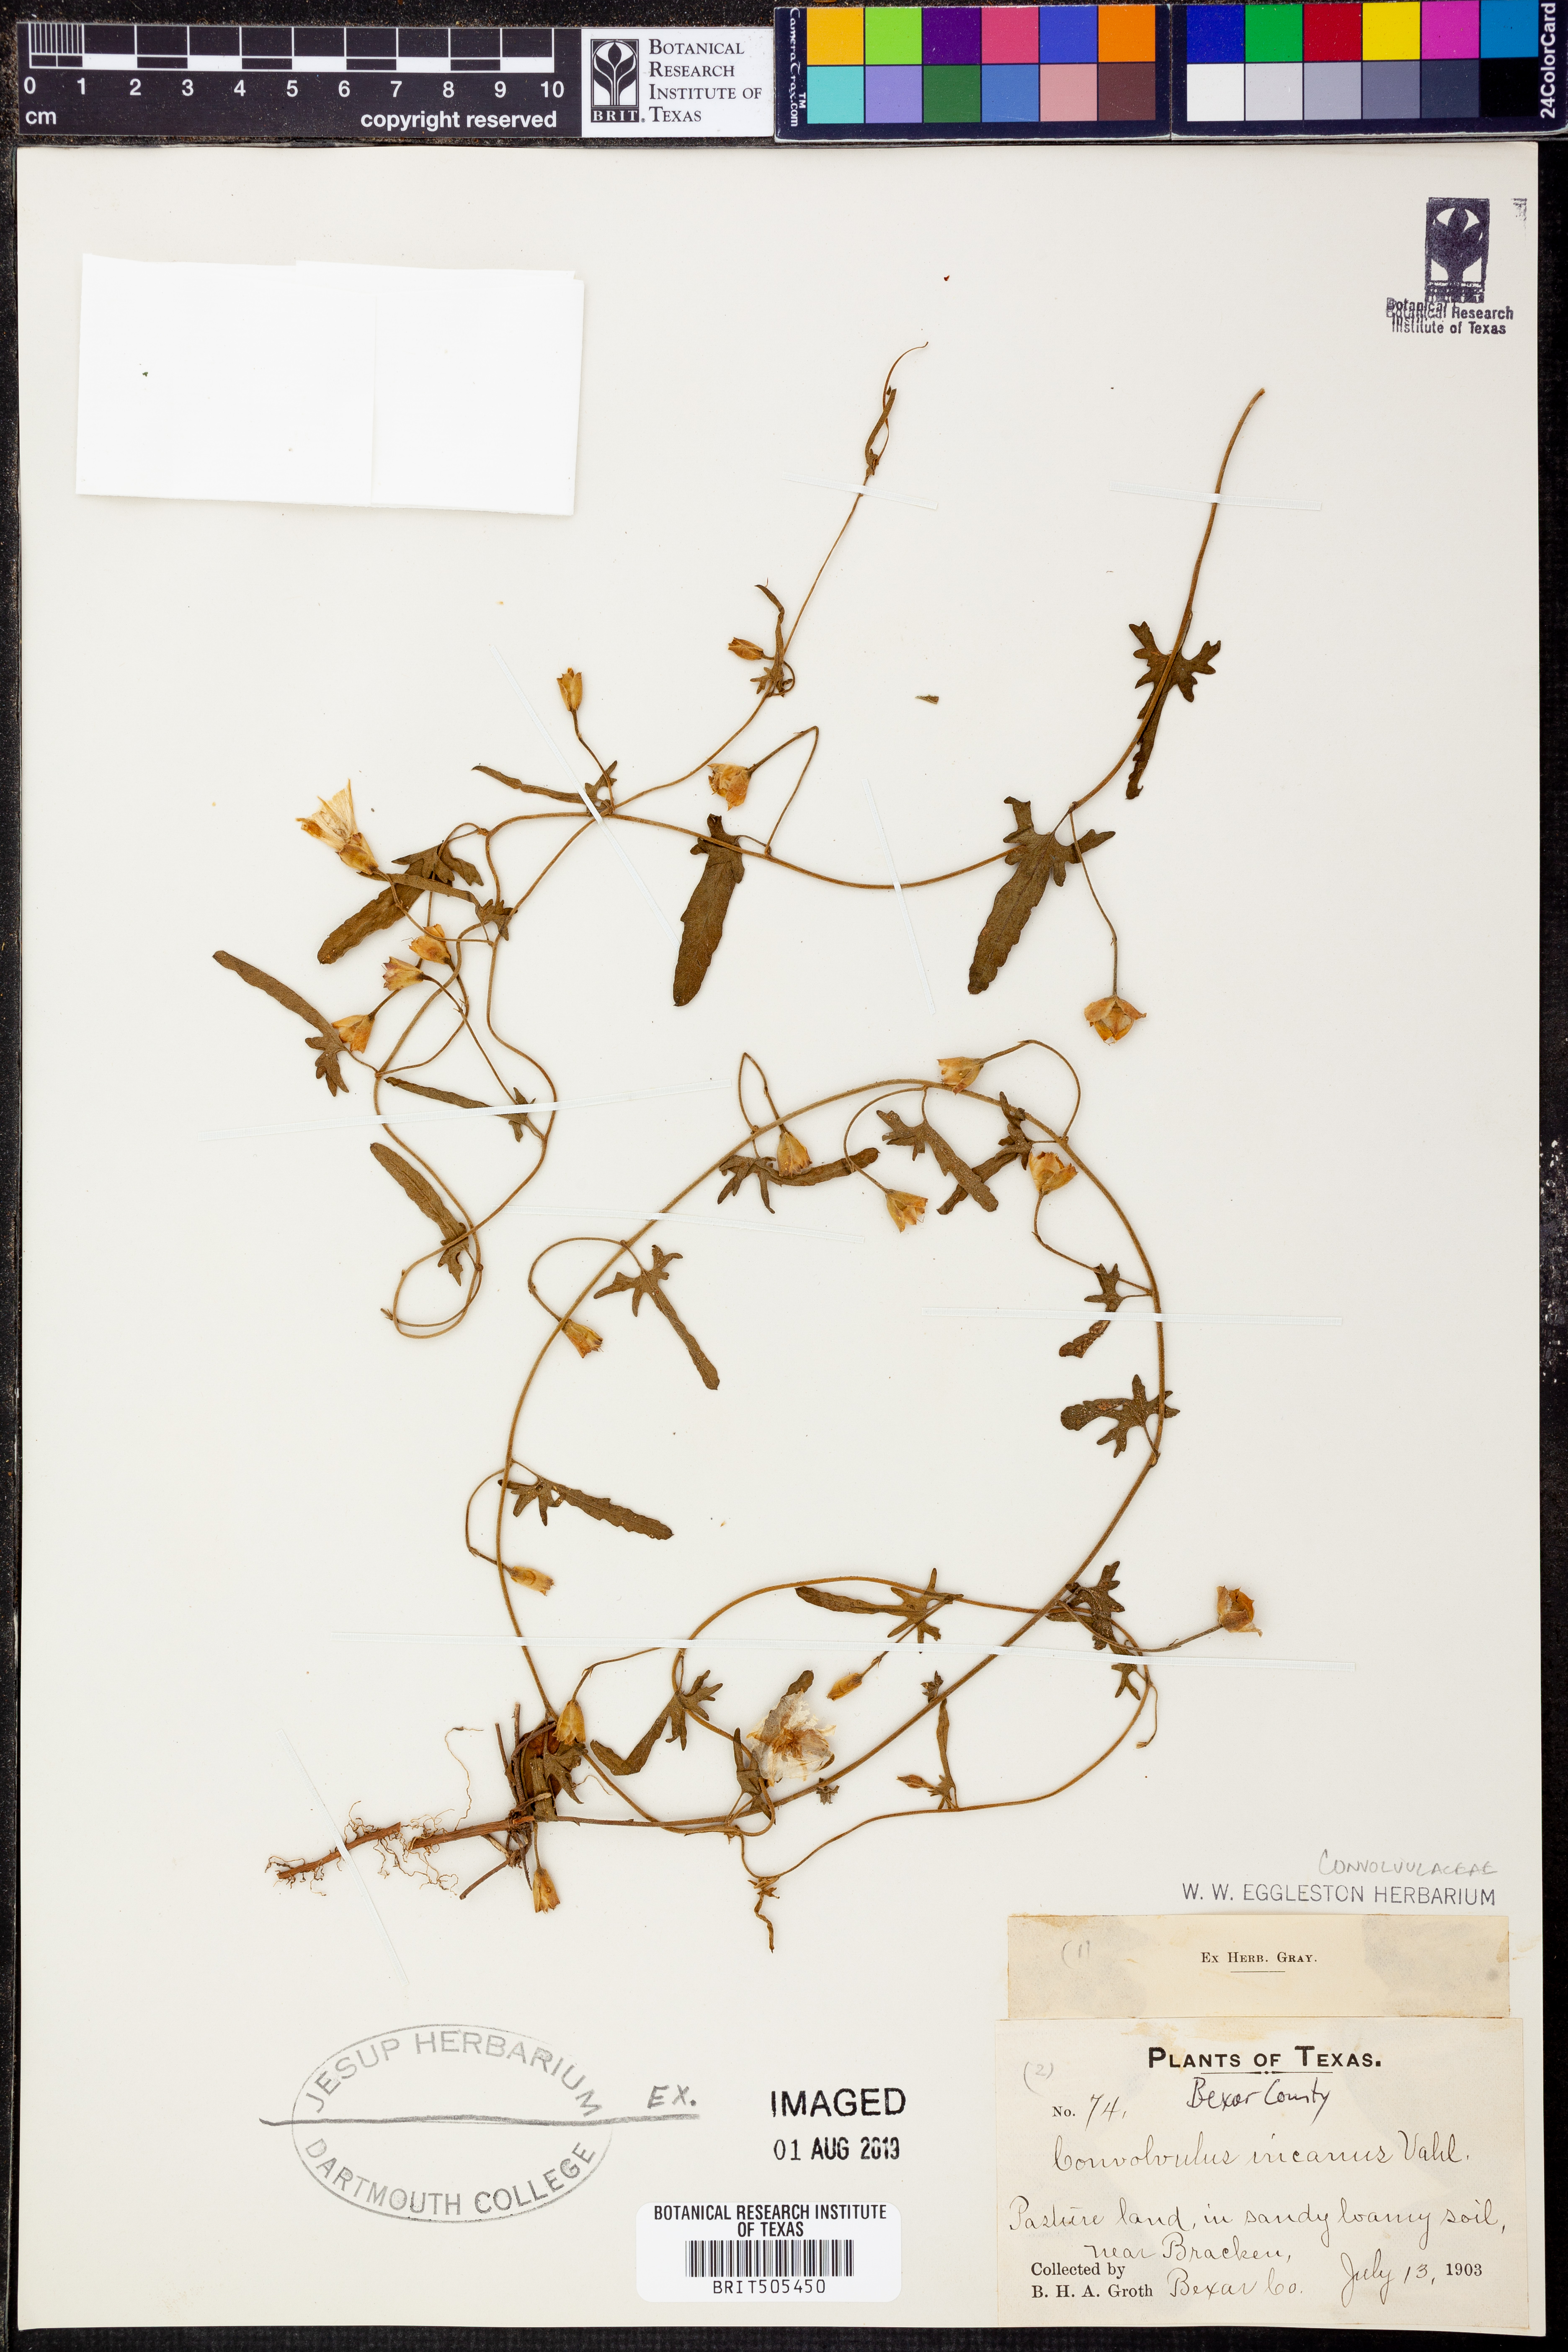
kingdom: Plantae
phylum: Tracheophyta
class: Magnoliopsida
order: Solanales
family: Convolvulaceae
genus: Convolvulus
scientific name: Convolvulus hermanniae
